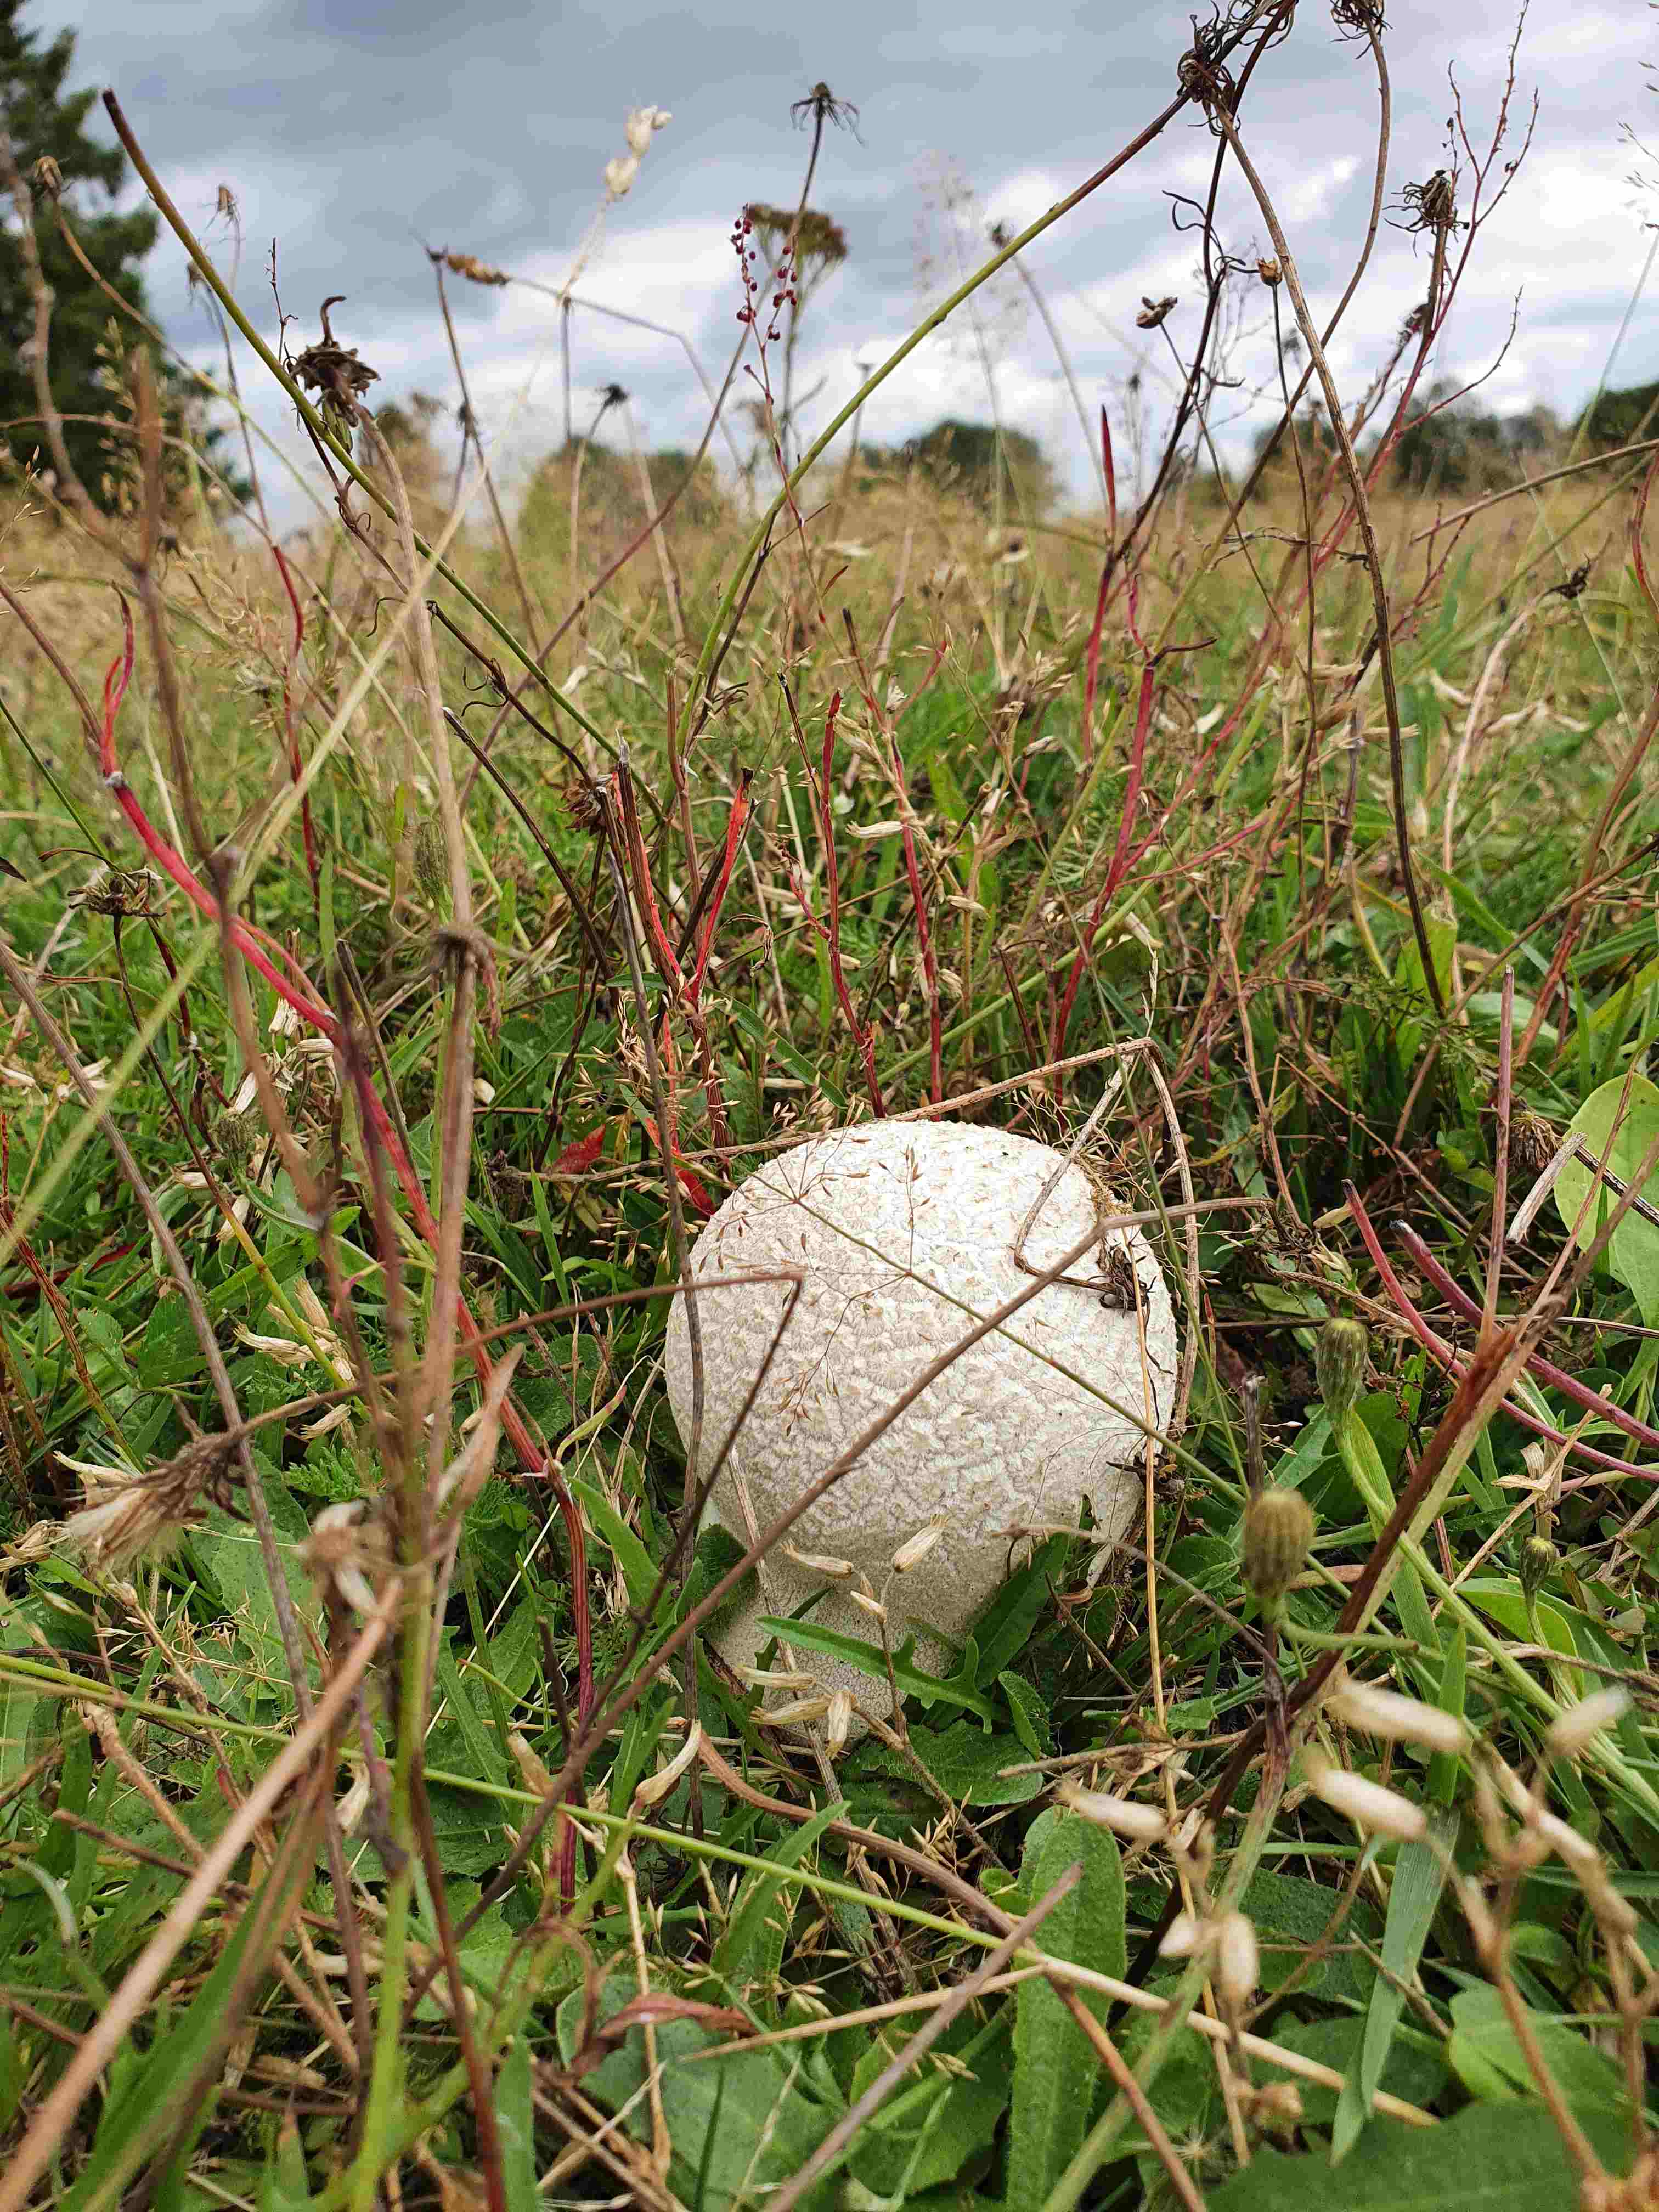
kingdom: Fungi
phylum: Basidiomycota
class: Agaricomycetes
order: Agaricales
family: Lycoperdaceae
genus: Bovistella
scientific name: Bovistella utriformis
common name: skællet støvbold
